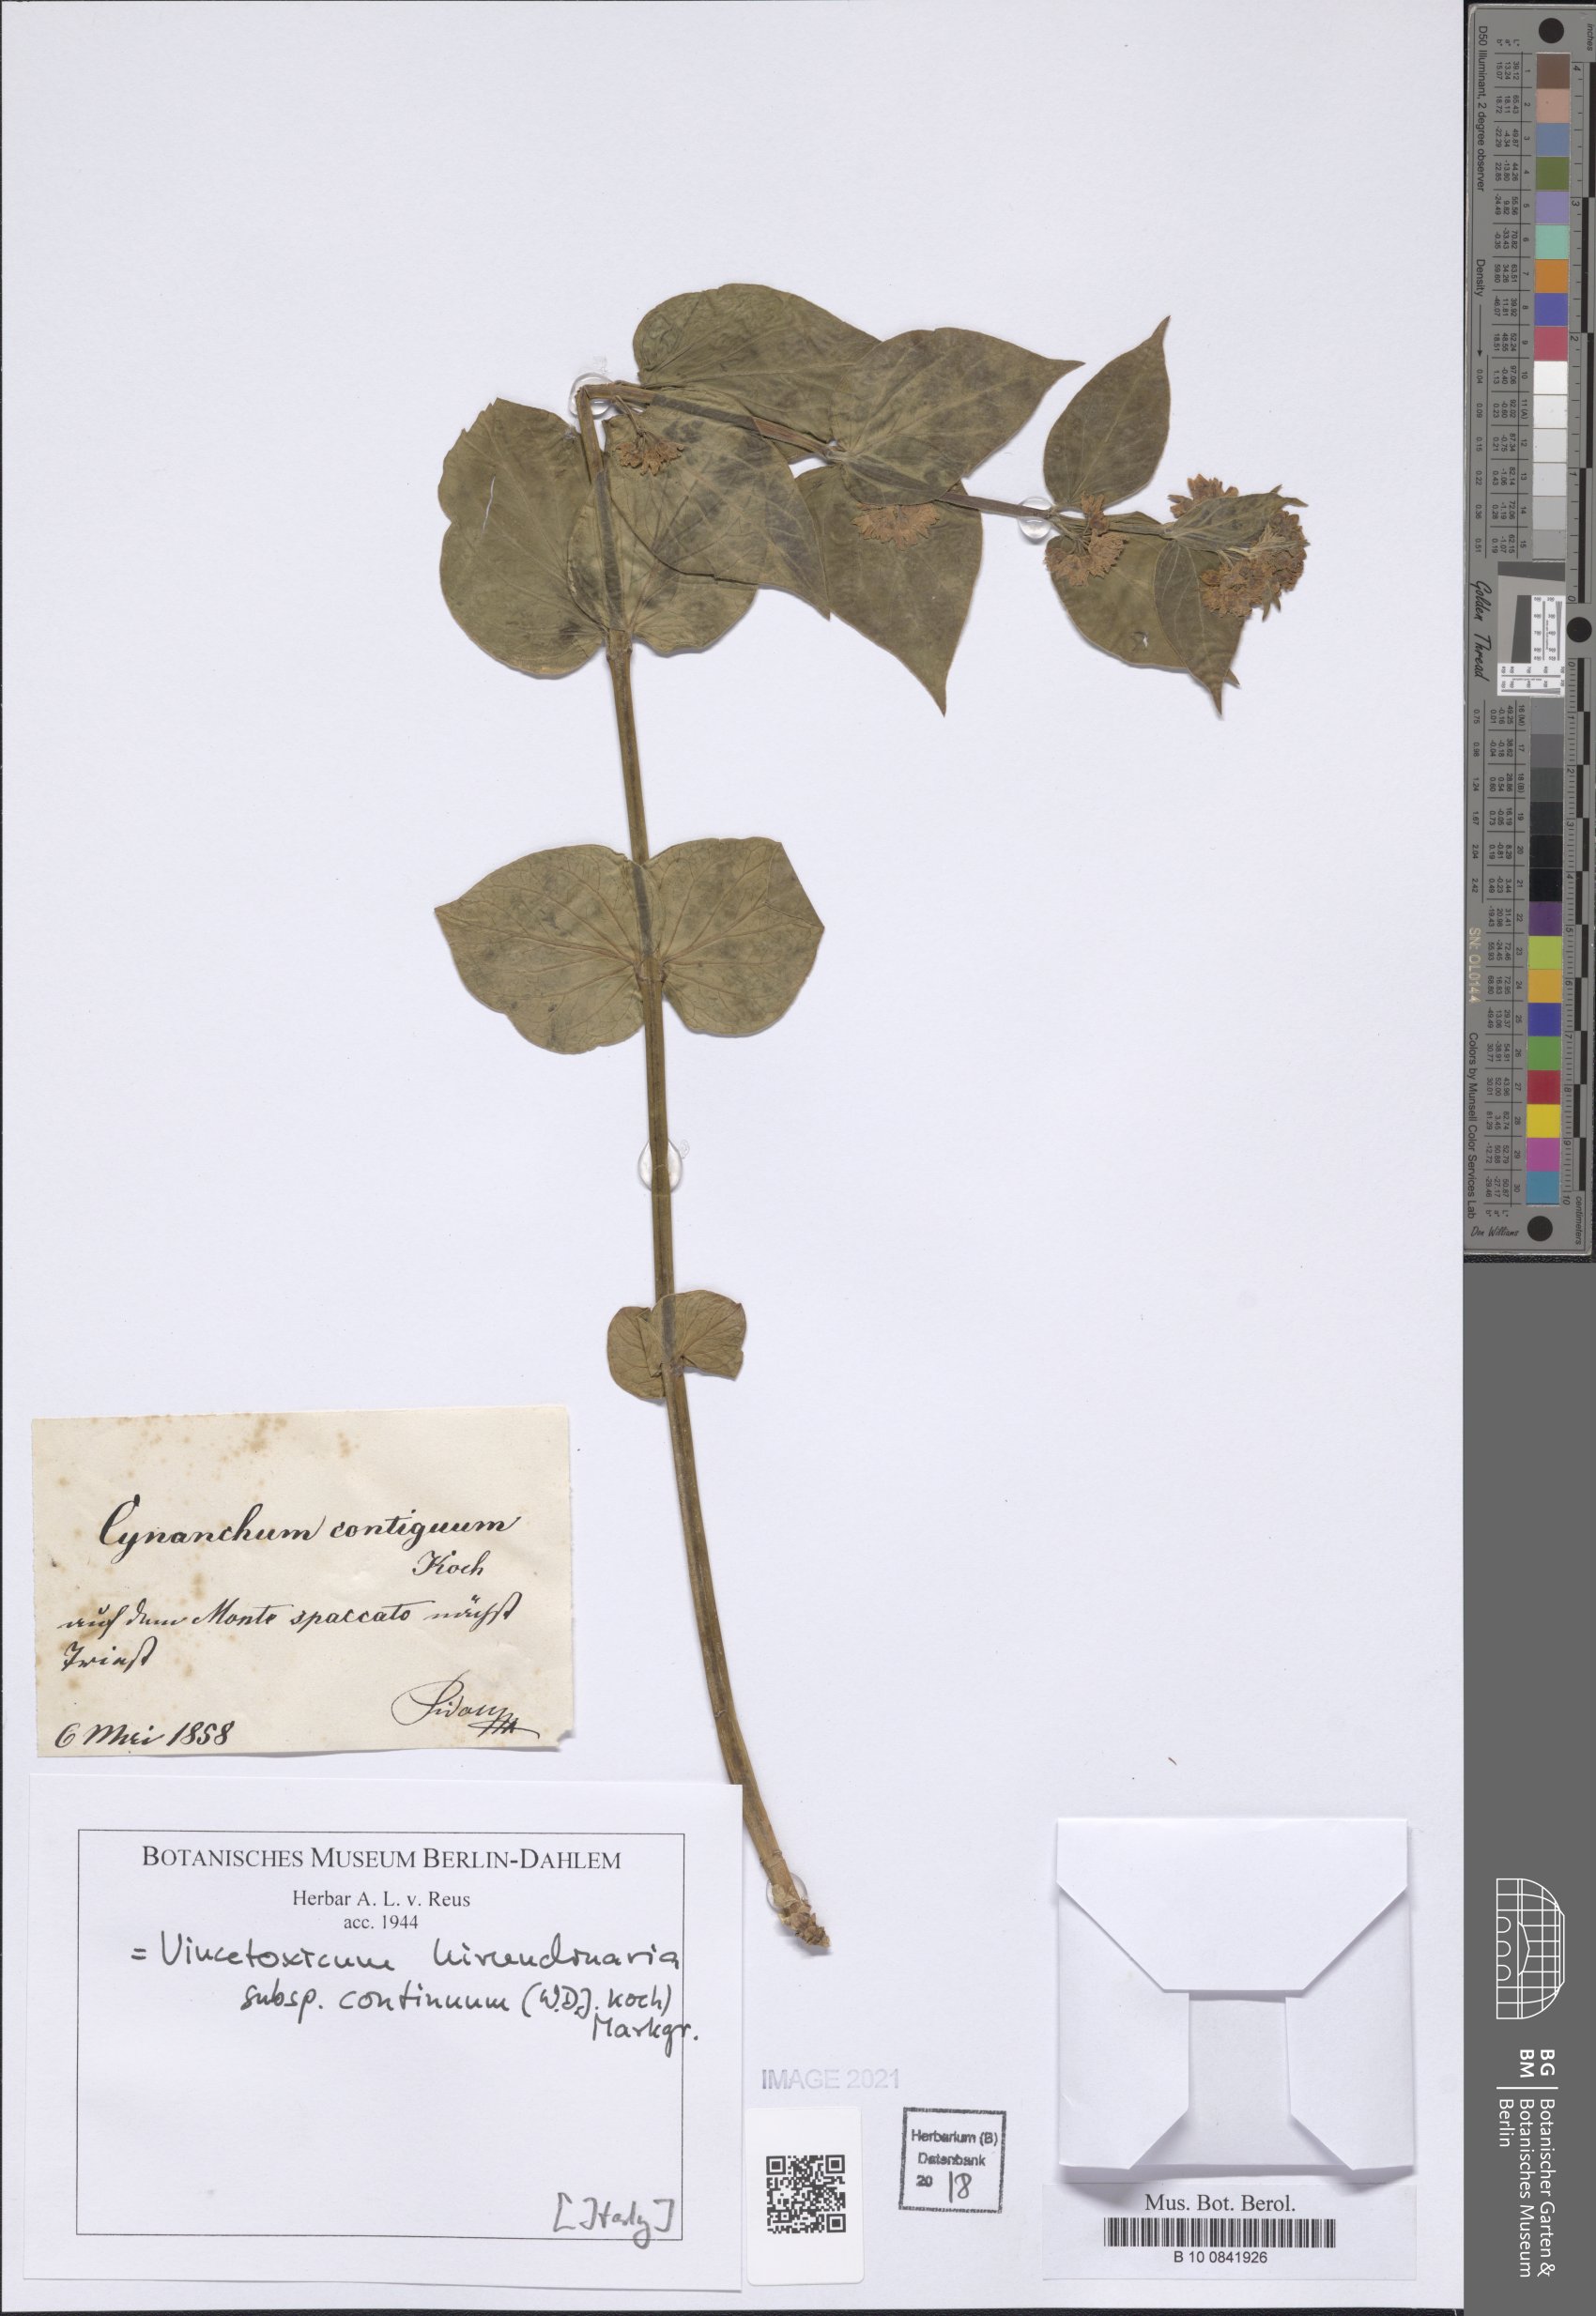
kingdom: Plantae
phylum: Tracheophyta
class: Magnoliopsida
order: Gentianales
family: Apocynaceae
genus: Vincetoxicum
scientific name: Vincetoxicum hirundinaria
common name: White swallowwort
